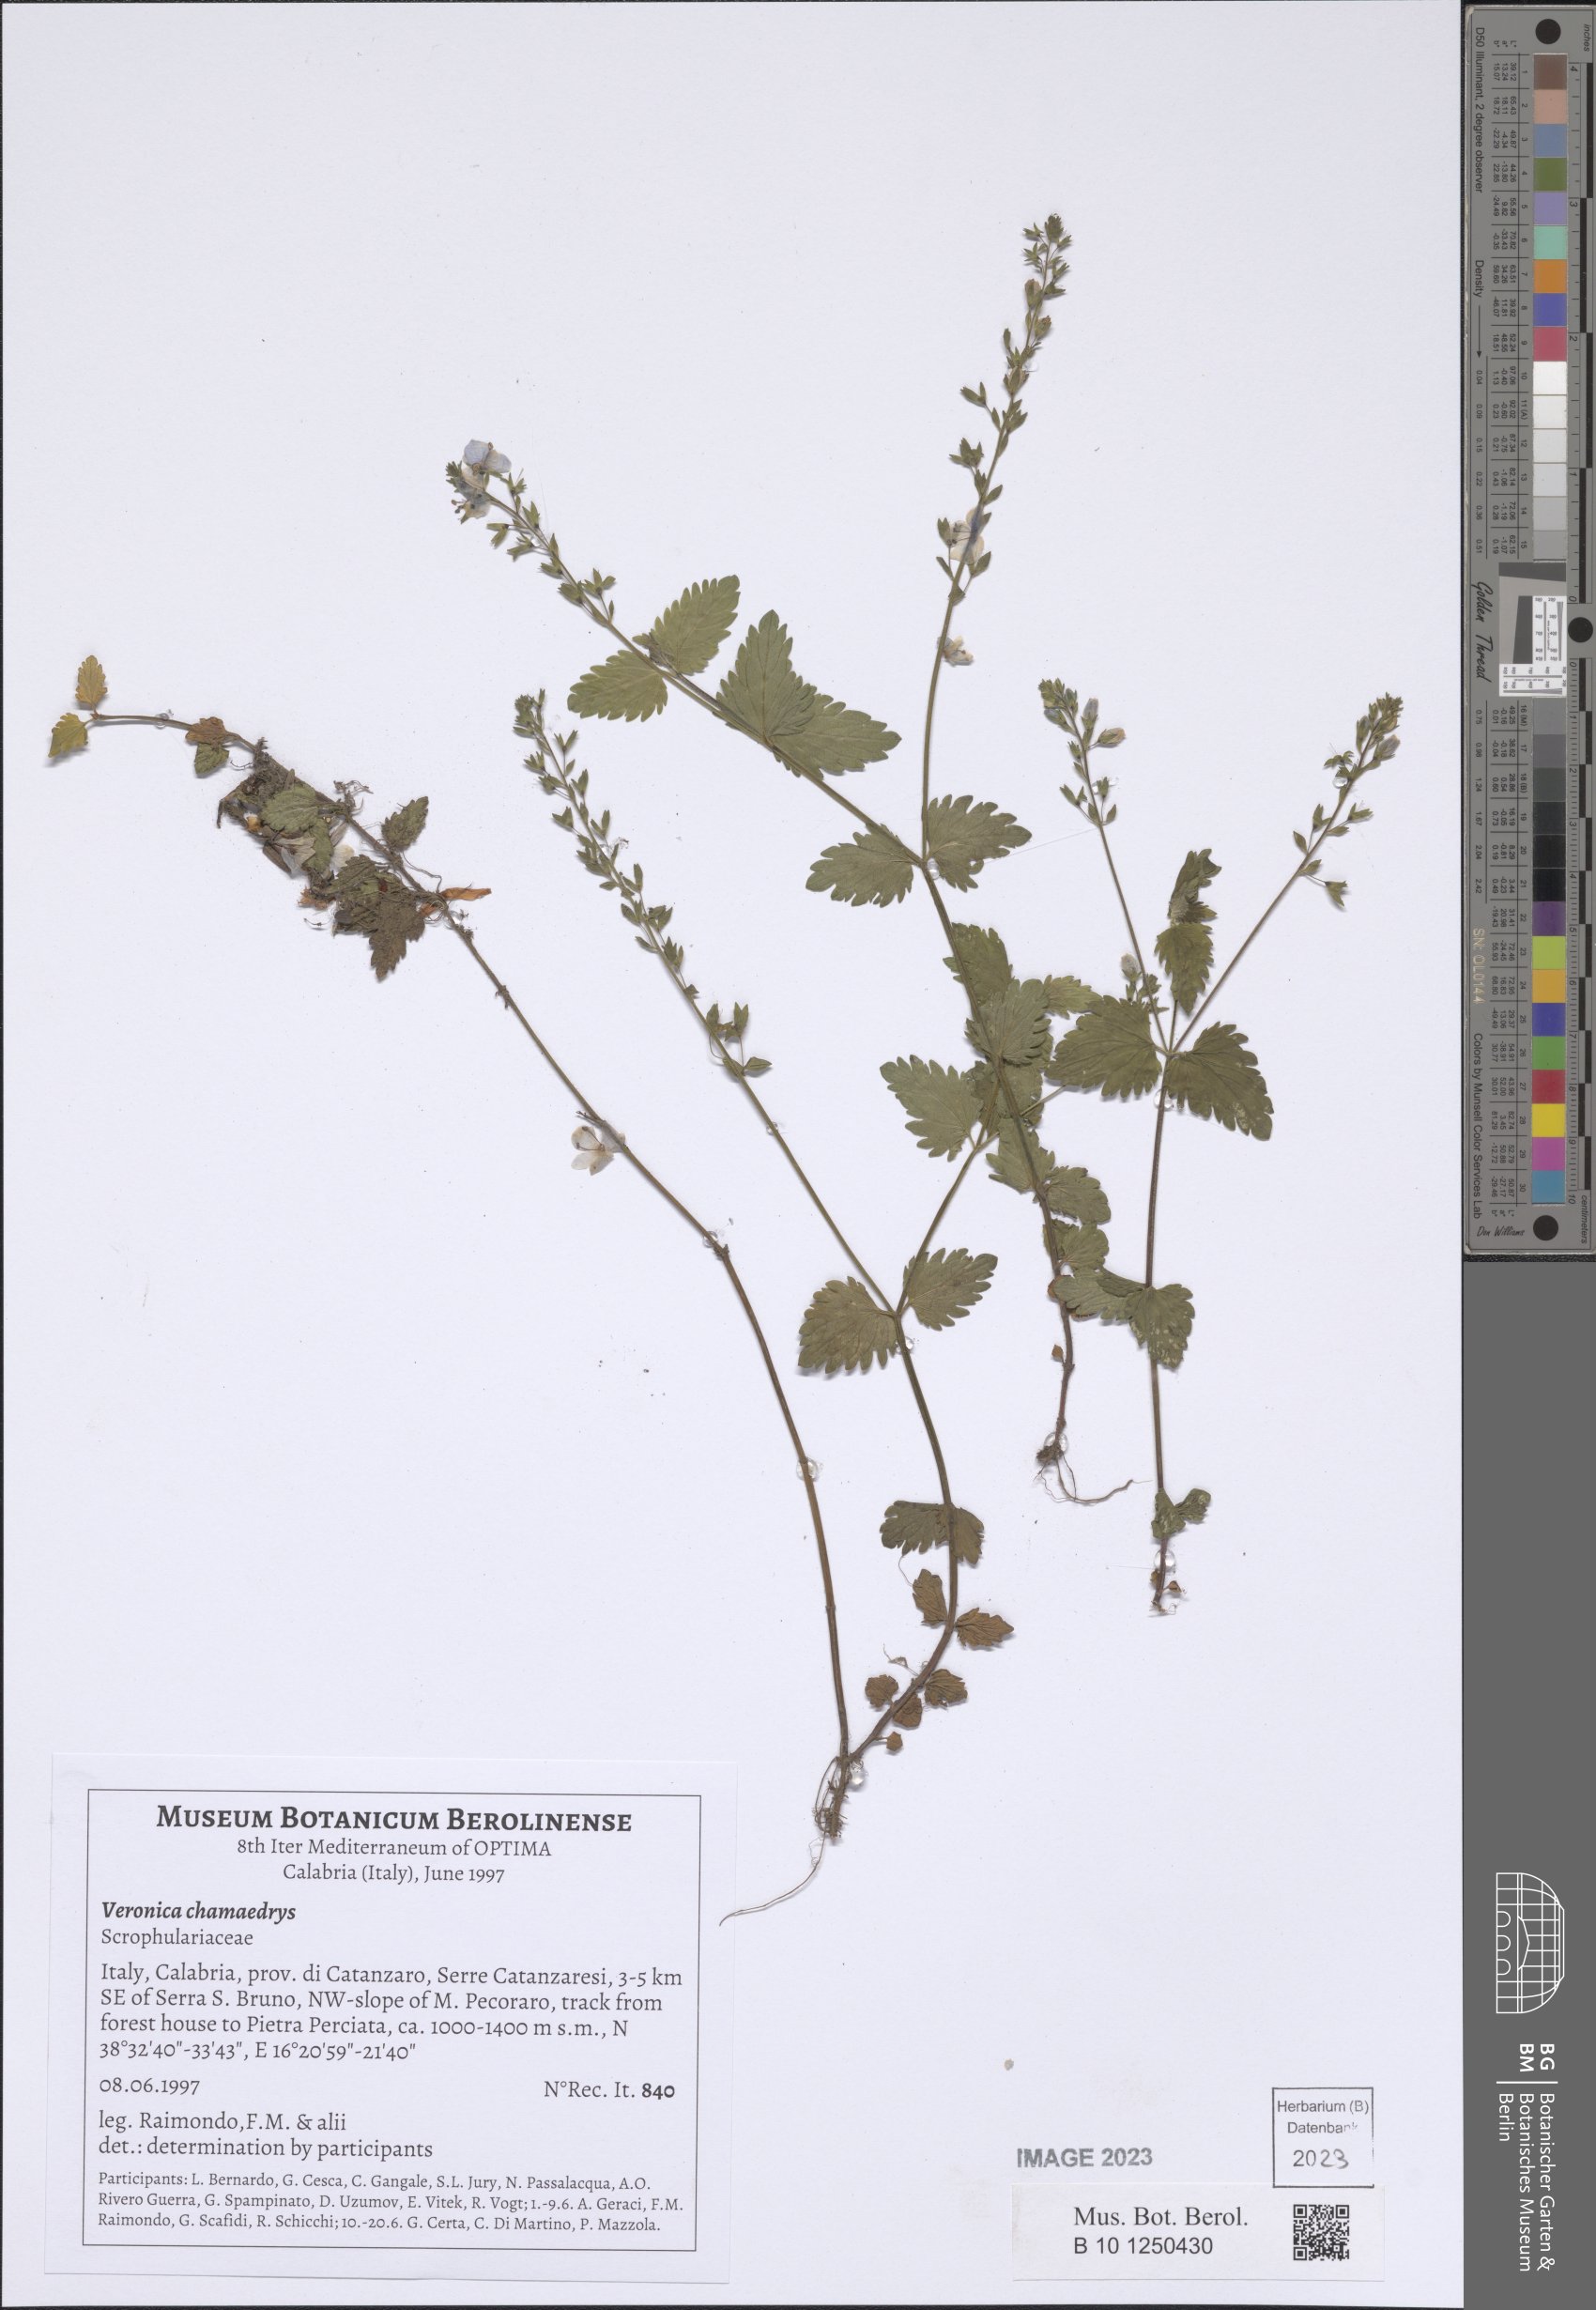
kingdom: Plantae
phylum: Tracheophyta
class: Magnoliopsida
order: Lamiales
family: Plantaginaceae
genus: Veronica
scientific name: Veronica chamaedrys
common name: Germander speedwell
